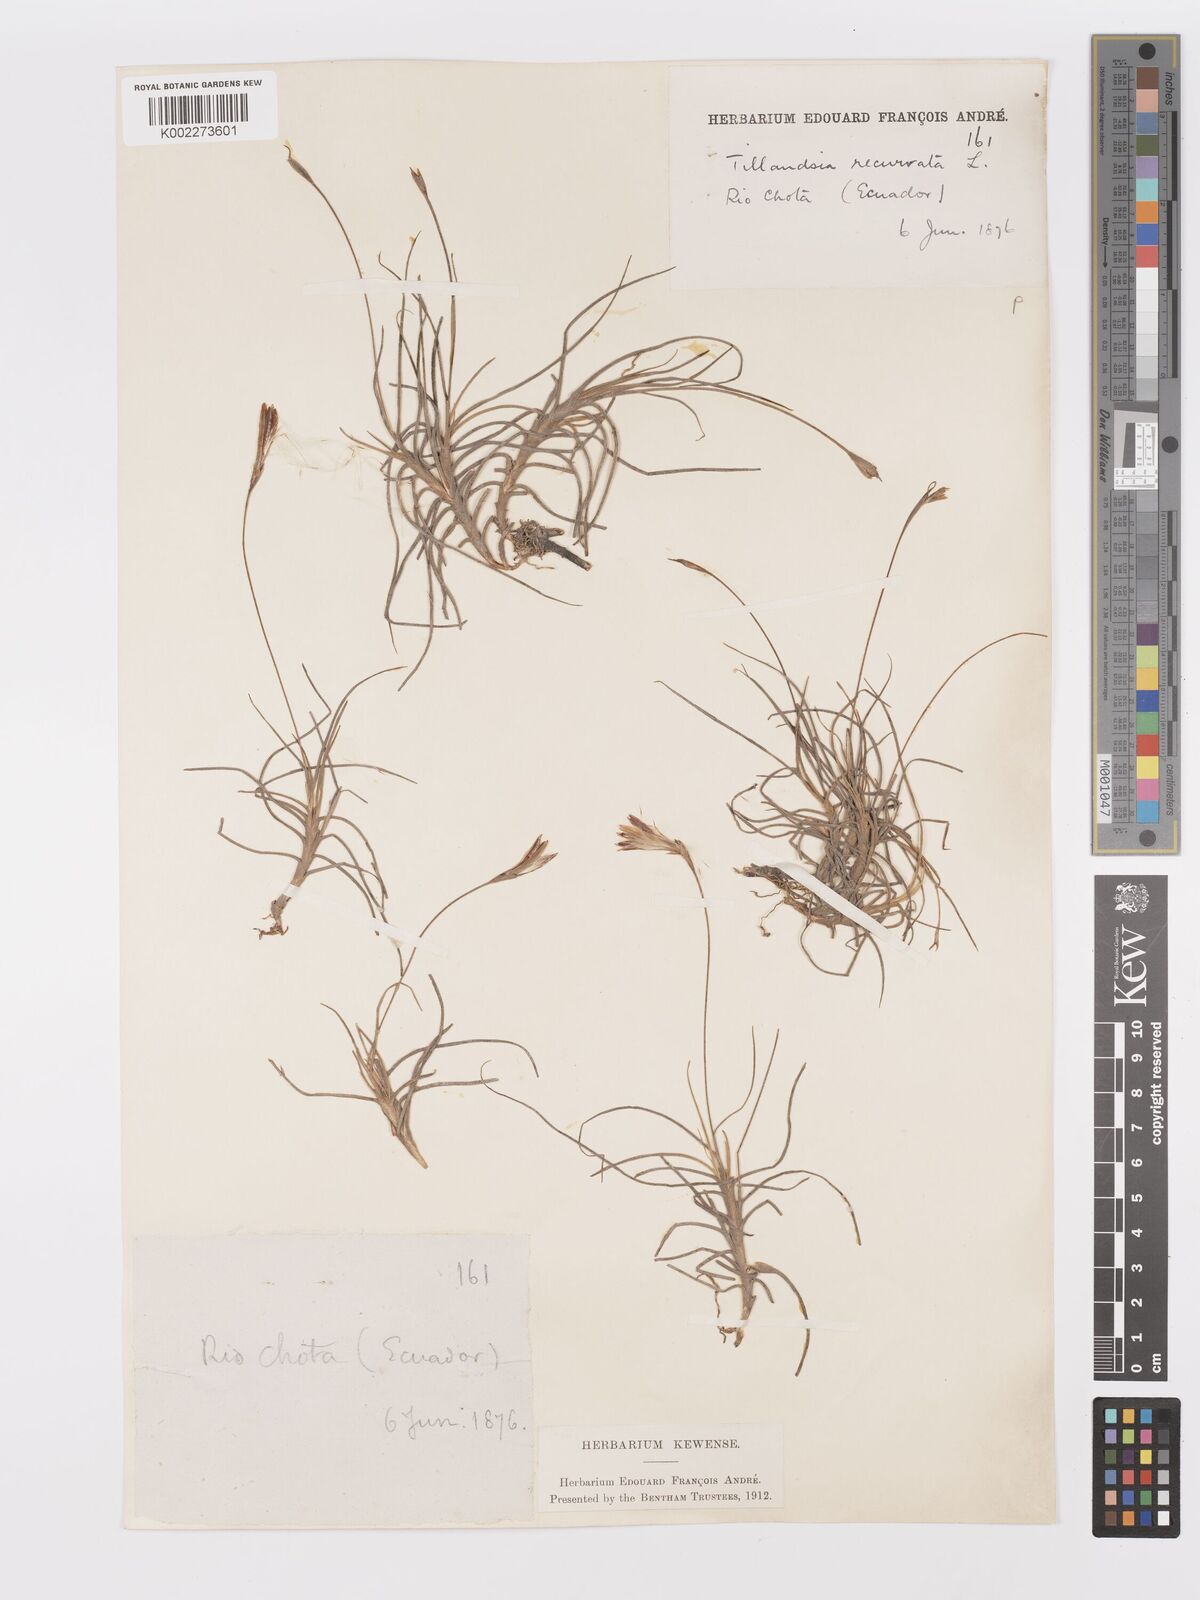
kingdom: Plantae
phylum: Tracheophyta
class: Liliopsida
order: Poales
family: Bromeliaceae
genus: Tillandsia
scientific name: Tillandsia recurvata
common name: Small ballmoss
